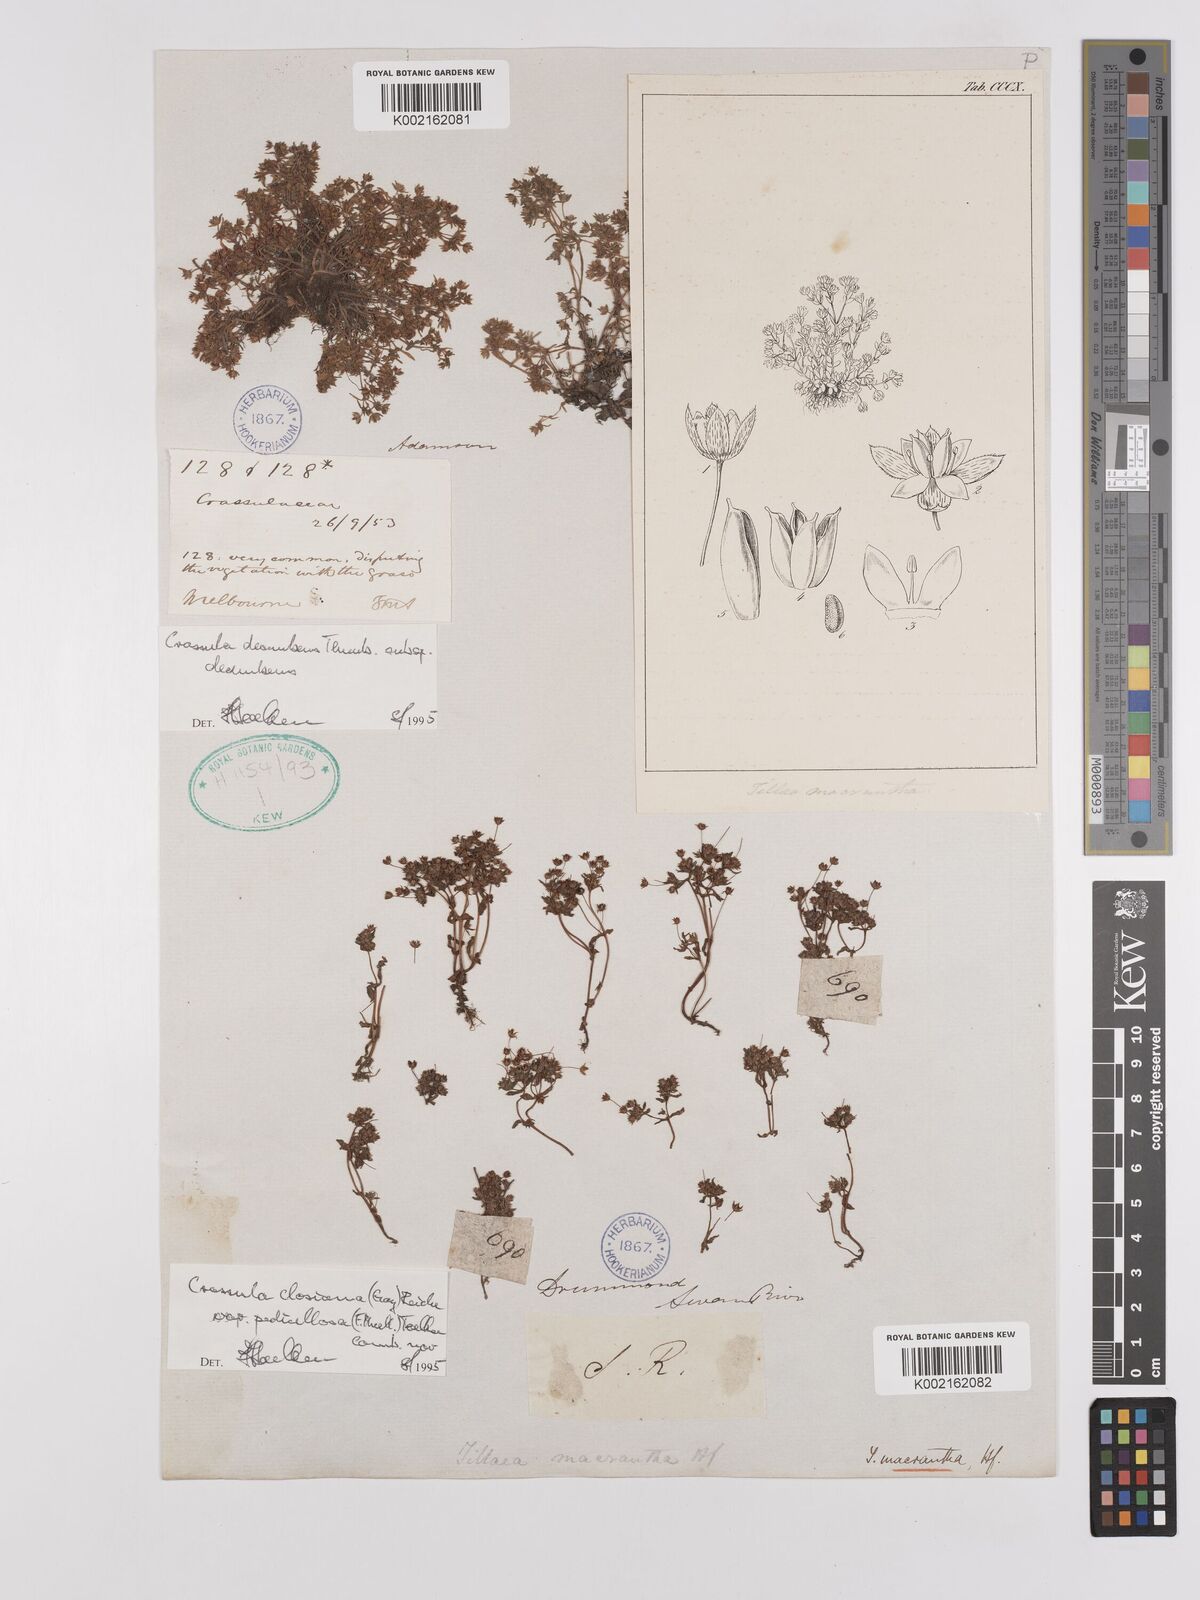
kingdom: Plantae
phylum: Tracheophyta
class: Magnoliopsida
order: Saxifragales
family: Crassulaceae
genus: Crassula
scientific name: Crassula closiana
